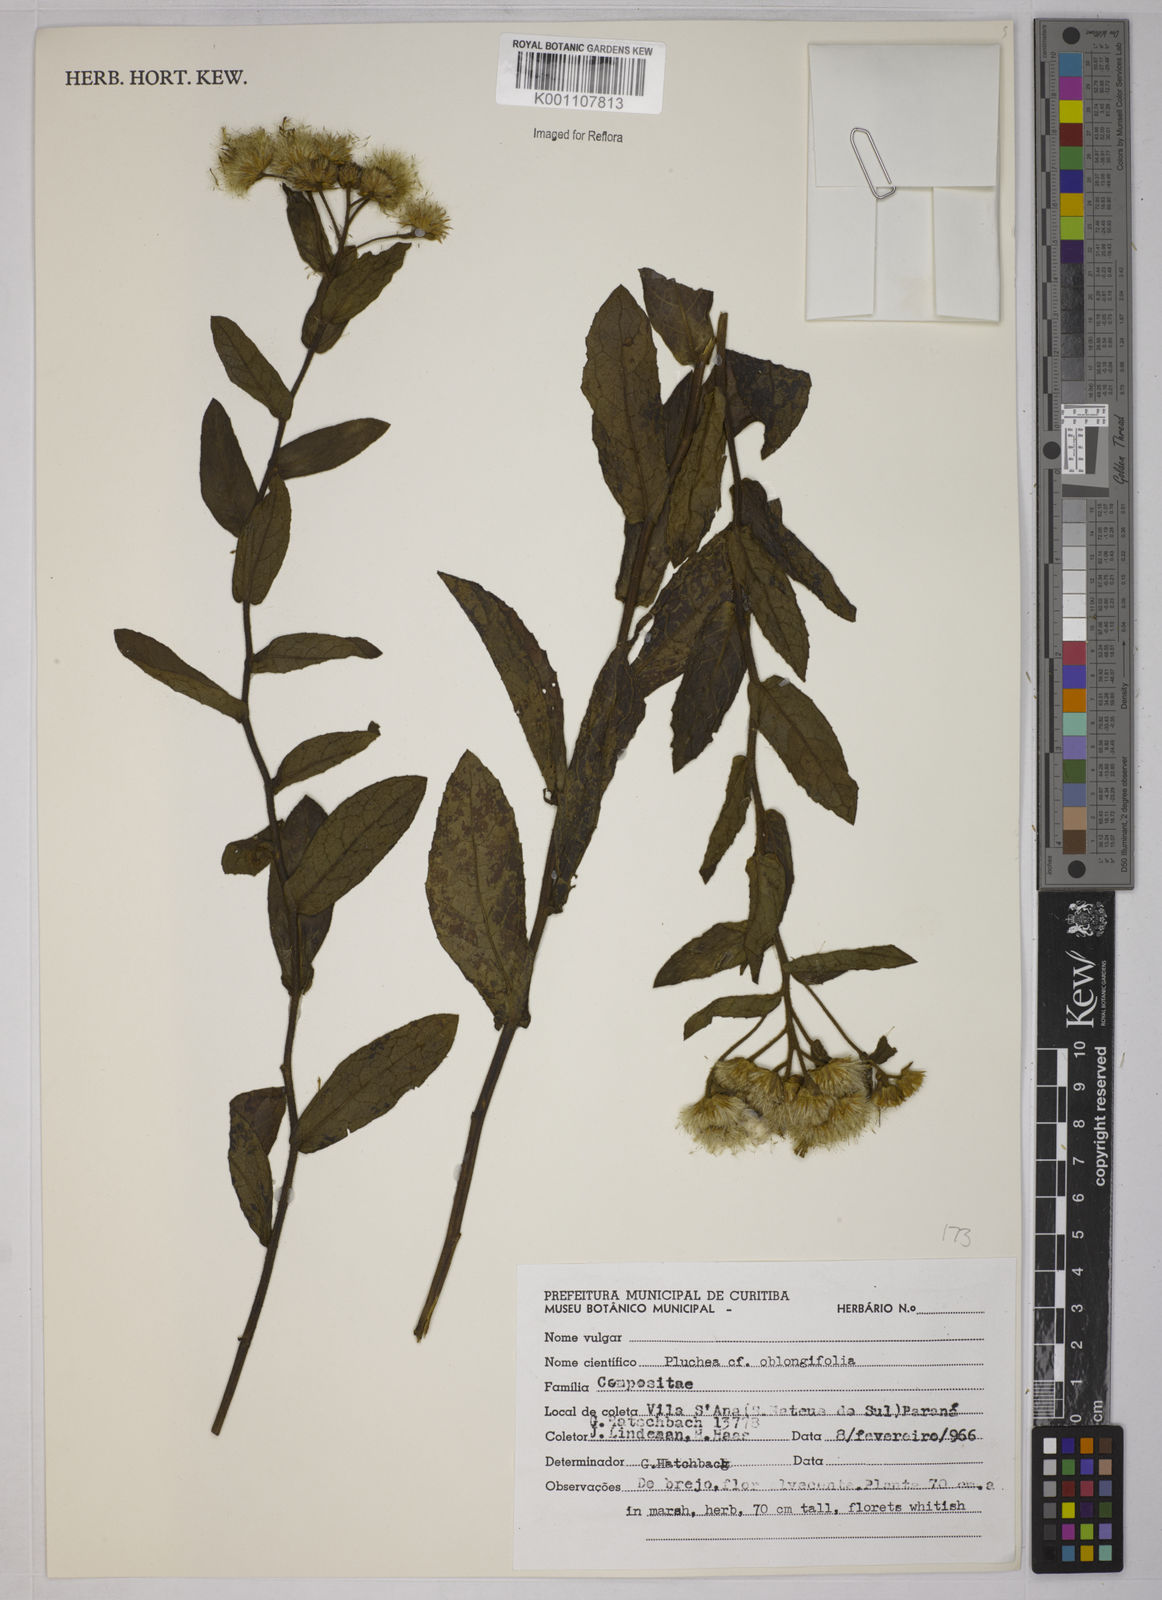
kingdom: Plantae
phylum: Tracheophyta
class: Magnoliopsida
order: Asterales
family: Asteraceae
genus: Pluchea
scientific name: Pluchea oblongifolia
